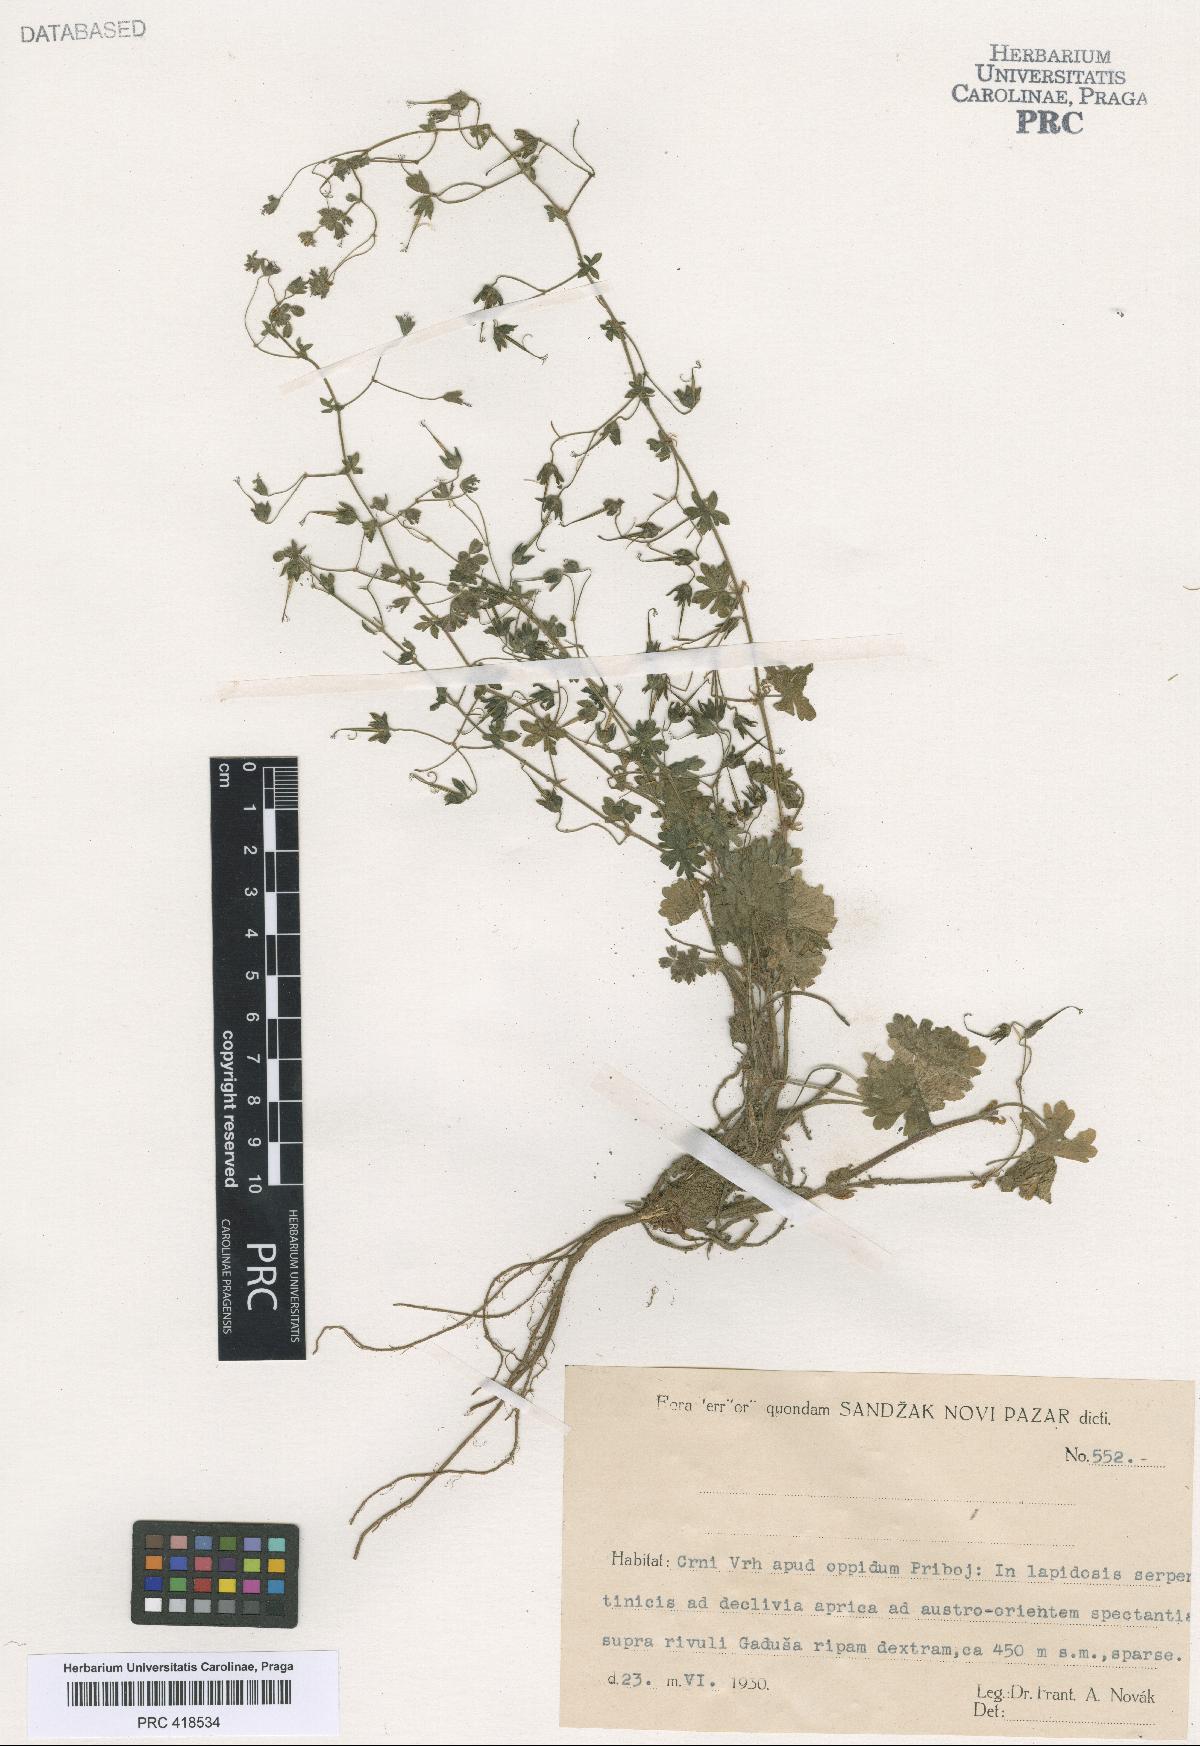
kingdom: Plantae
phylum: Tracheophyta
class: Magnoliopsida
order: Geraniales
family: Geraniaceae
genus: Geranium
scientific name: Geranium molle
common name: Dove's-foot crane's-bill
